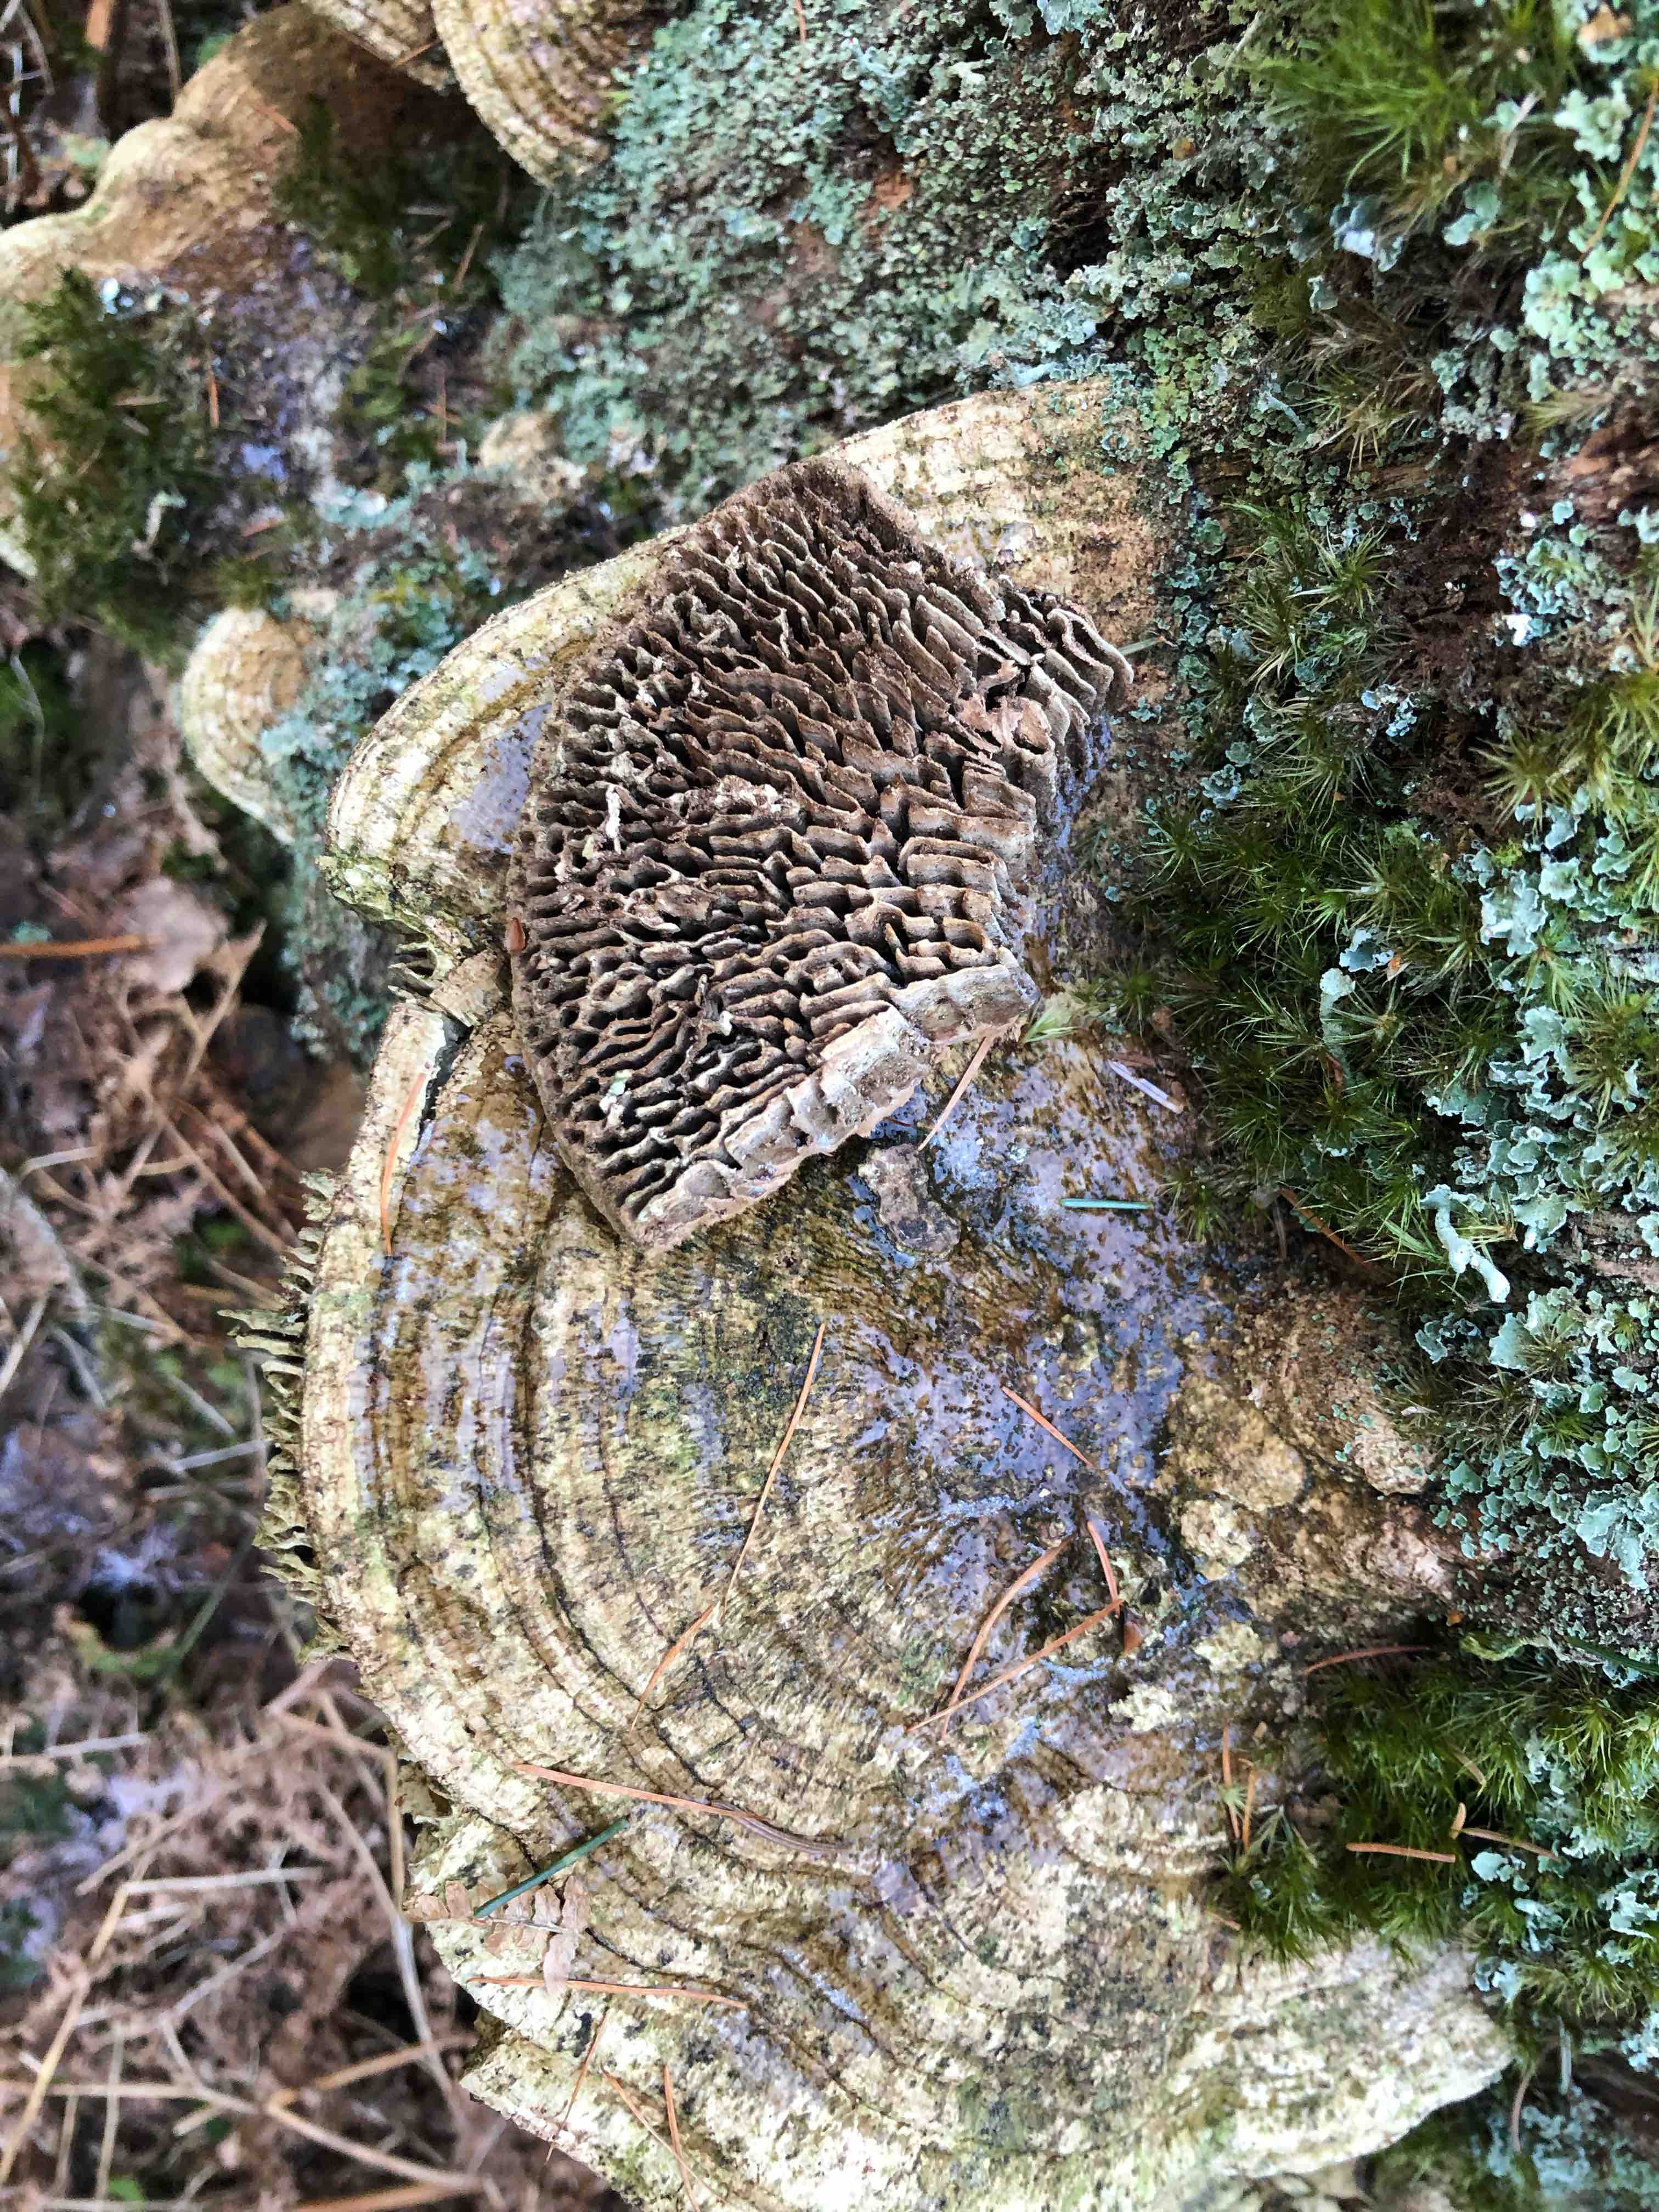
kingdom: Fungi
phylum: Basidiomycota
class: Agaricomycetes
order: Polyporales
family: Fomitopsidaceae
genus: Daedalea
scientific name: Daedalea quercina
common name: ege-labyrintsvamp
